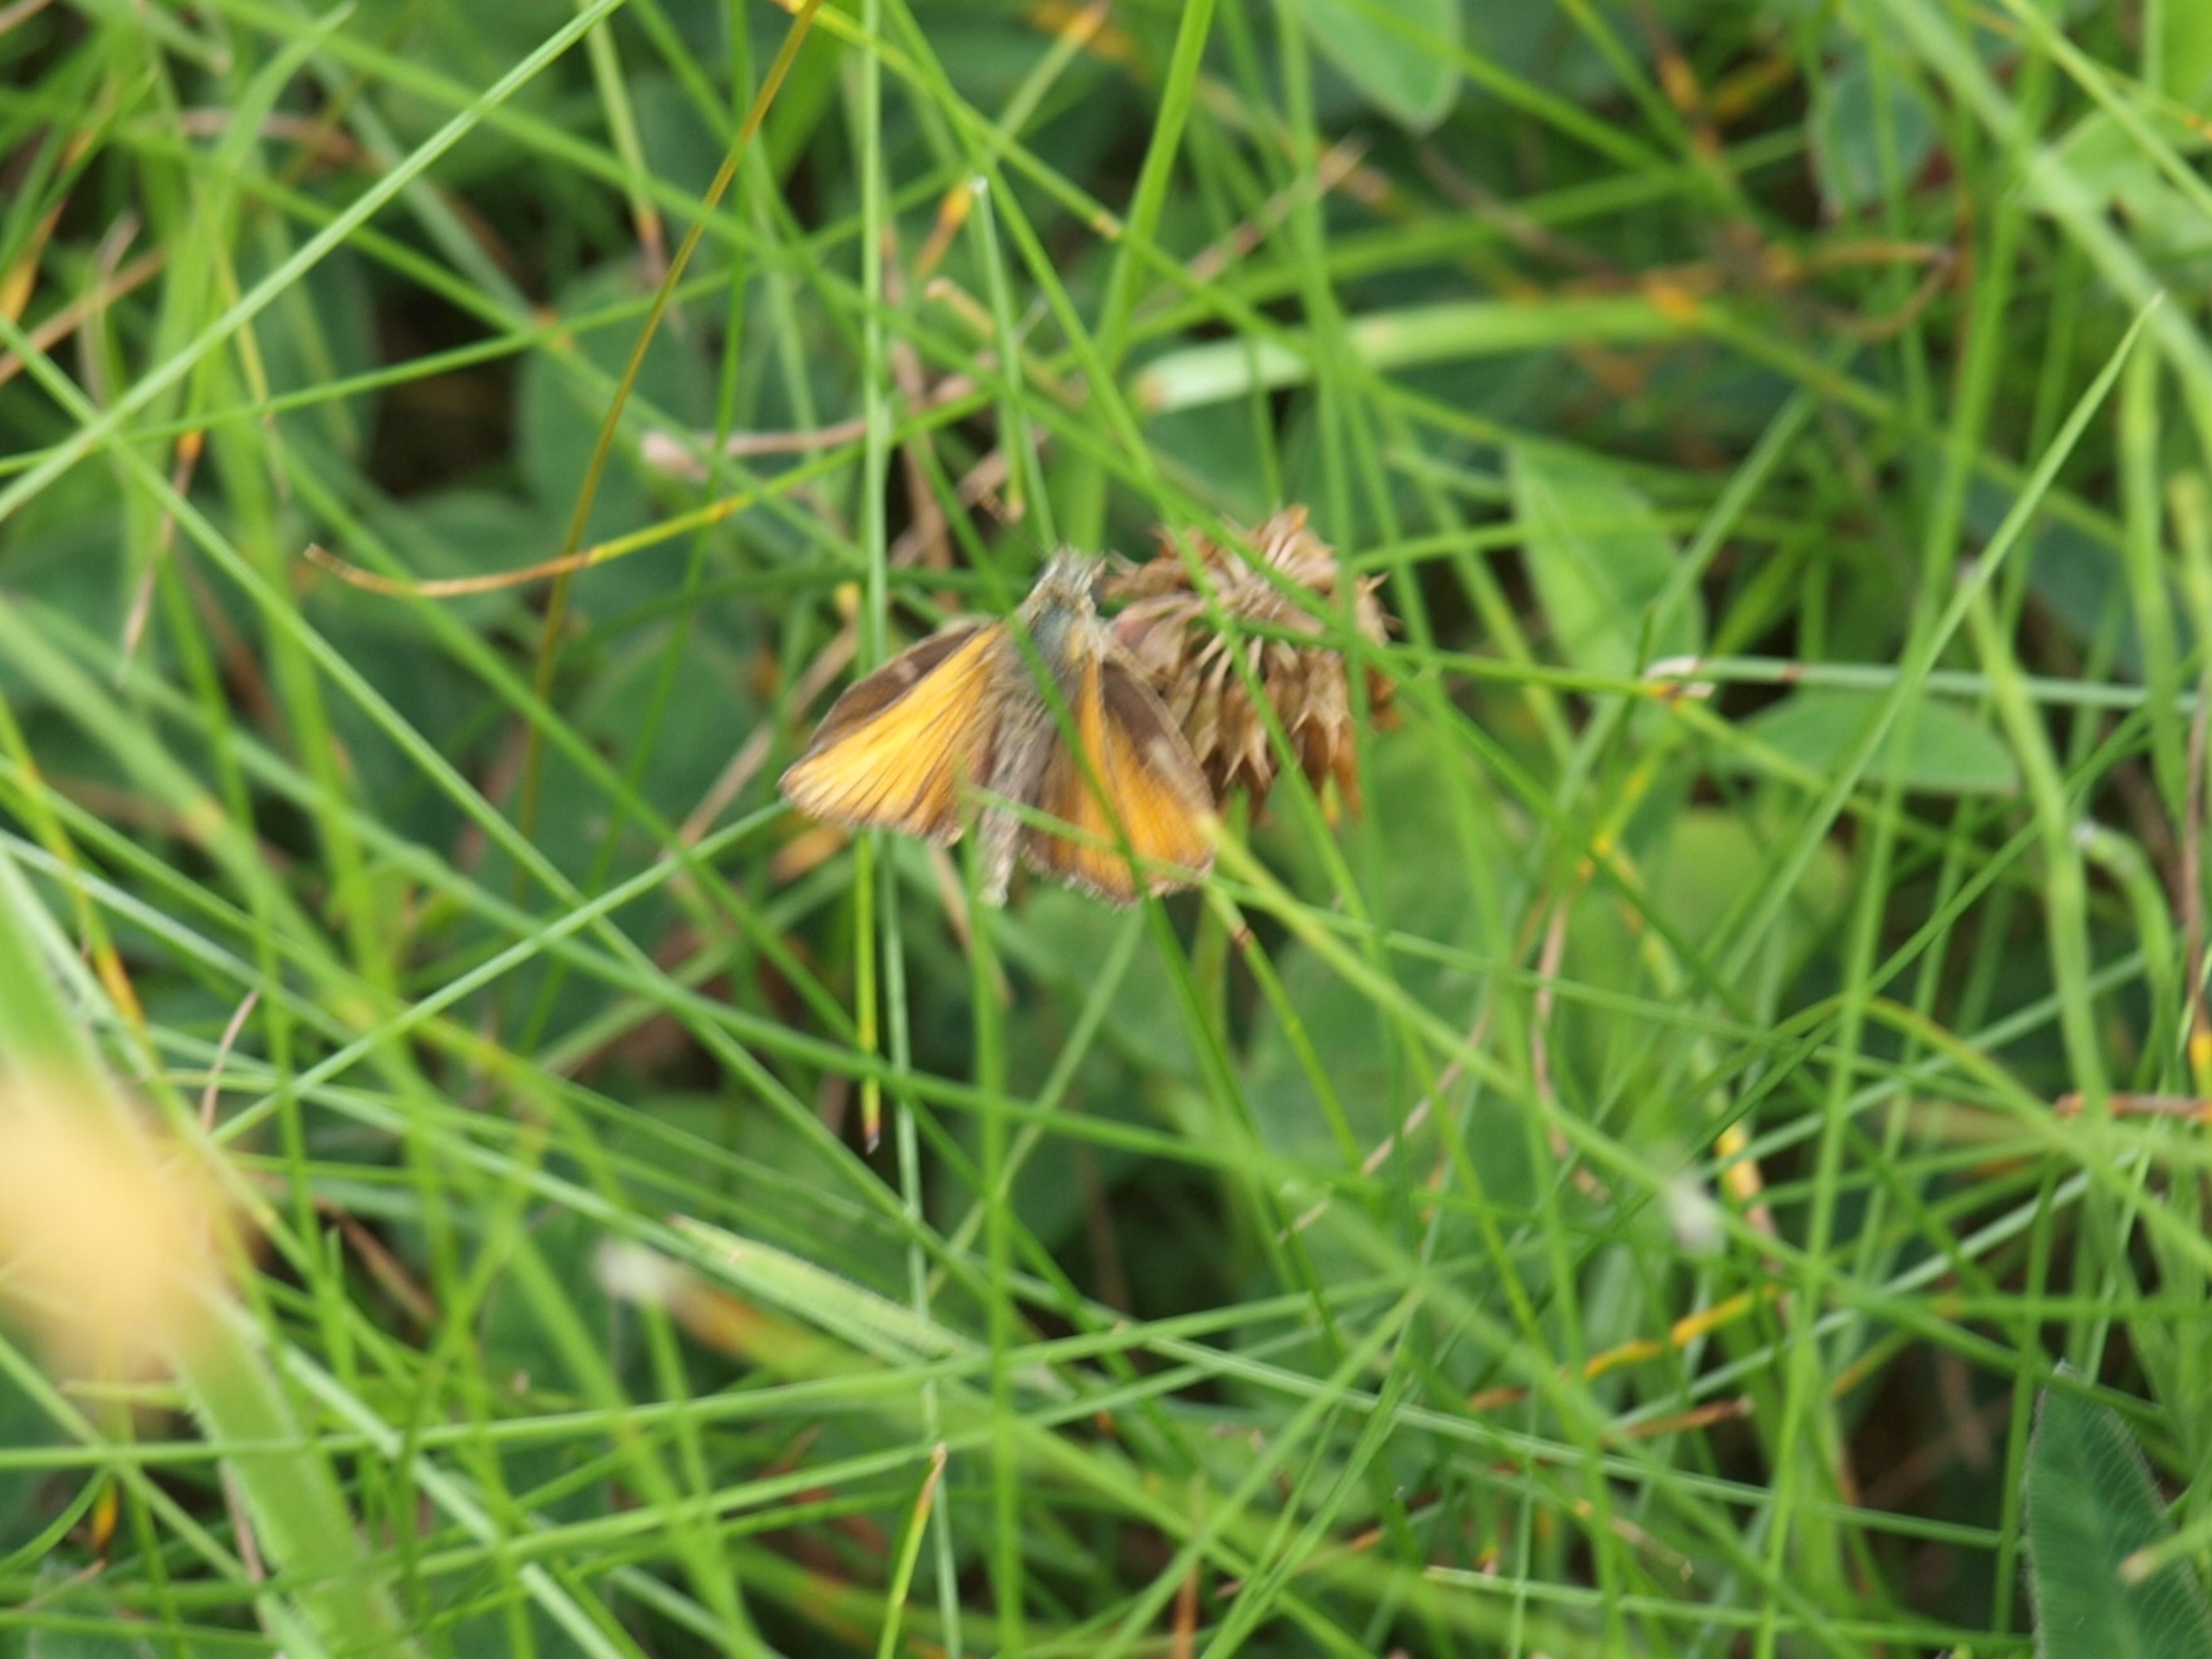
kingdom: Animalia
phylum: Arthropoda
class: Insecta
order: Lepidoptera
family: Hesperiidae
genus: Thymelicus
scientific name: Thymelicus lineola
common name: Stregbredpande
